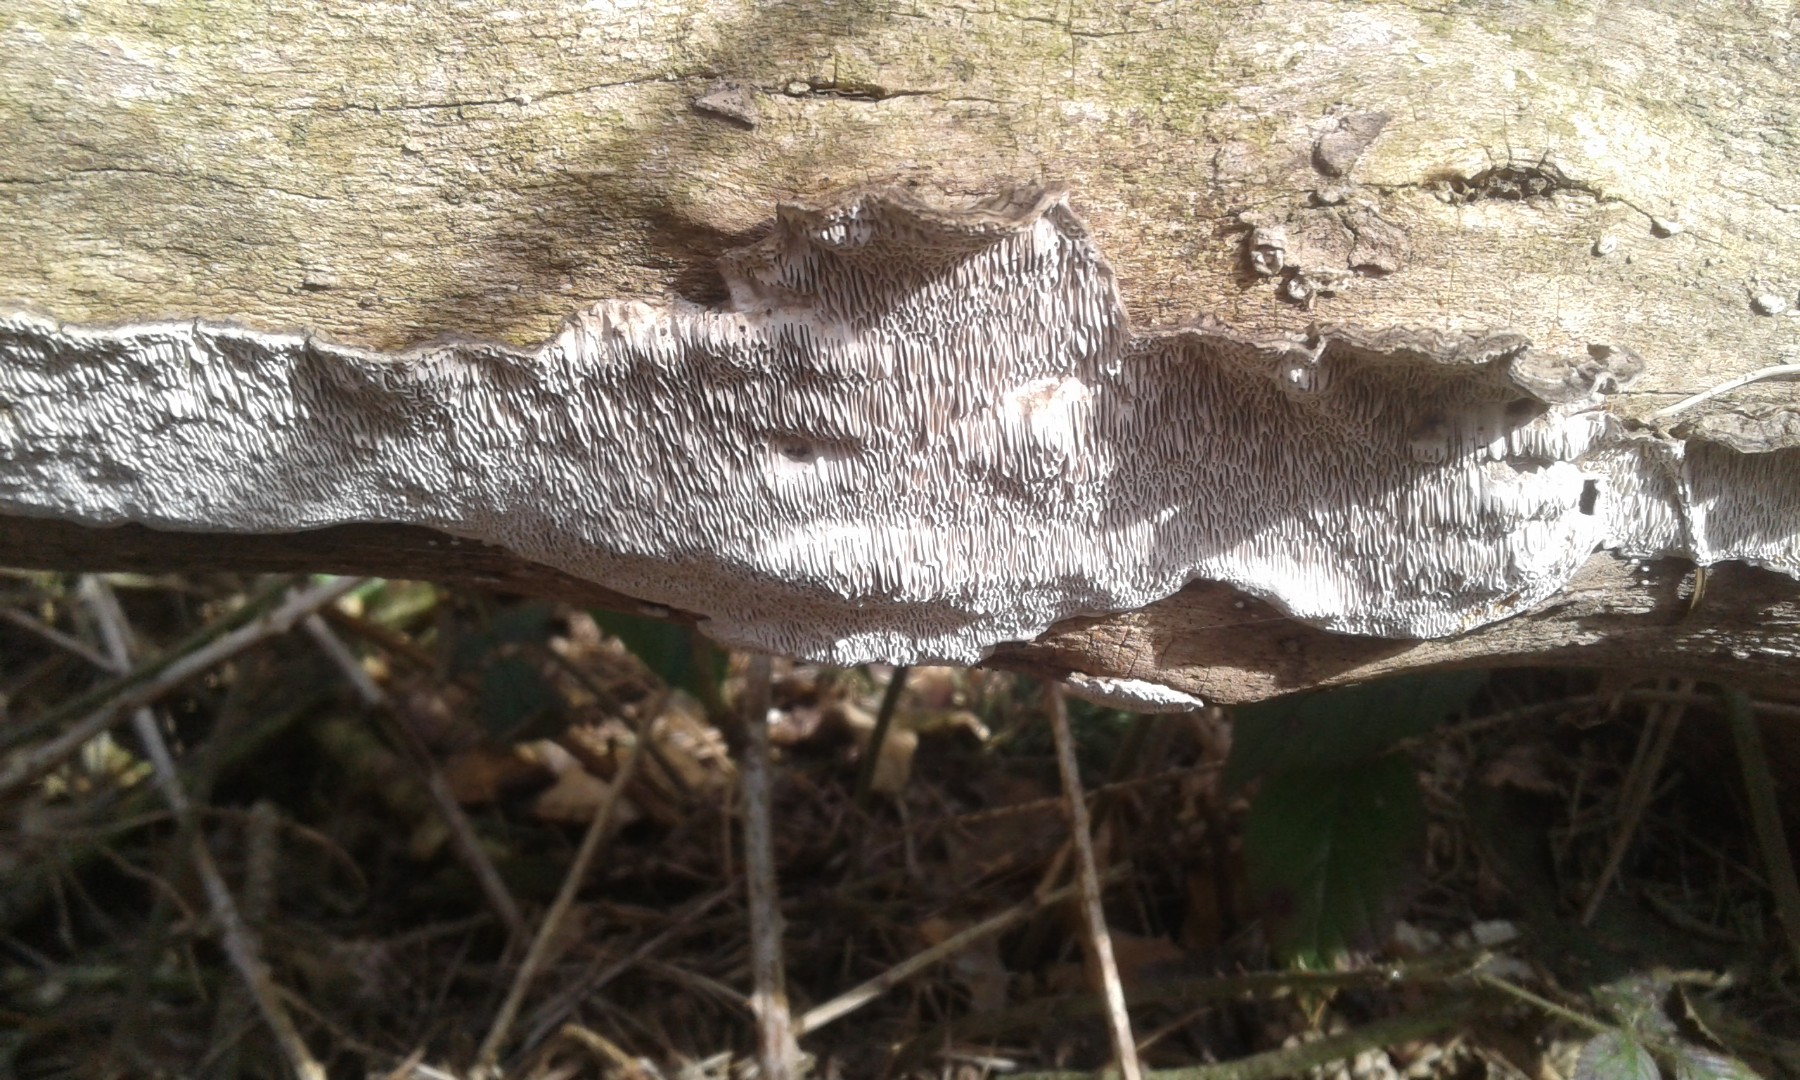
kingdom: Fungi
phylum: Basidiomycota
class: Agaricomycetes
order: Polyporales
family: Polyporaceae
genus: Podofomes
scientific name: Podofomes mollis
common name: blød begporesvamp
